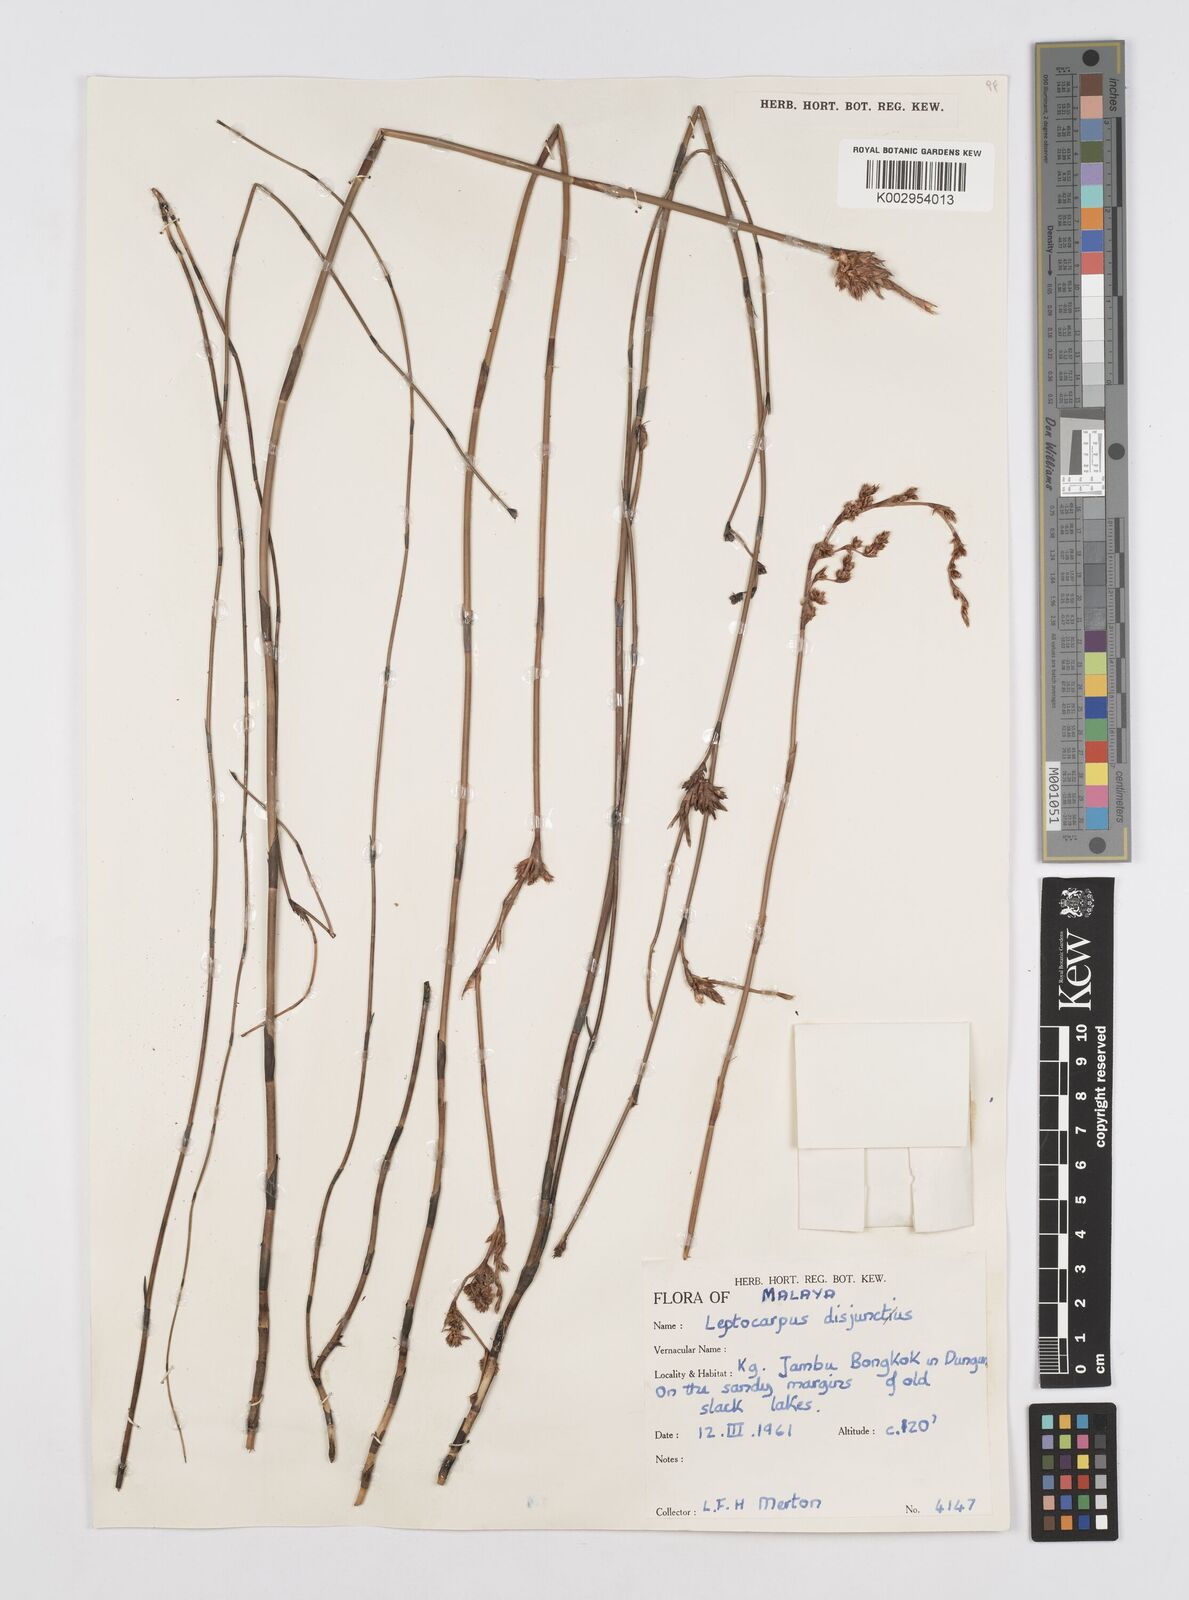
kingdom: Plantae
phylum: Tracheophyta
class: Liliopsida
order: Poales
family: Restionaceae
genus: Dapsilanthus
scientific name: Dapsilanthus disjunctus
